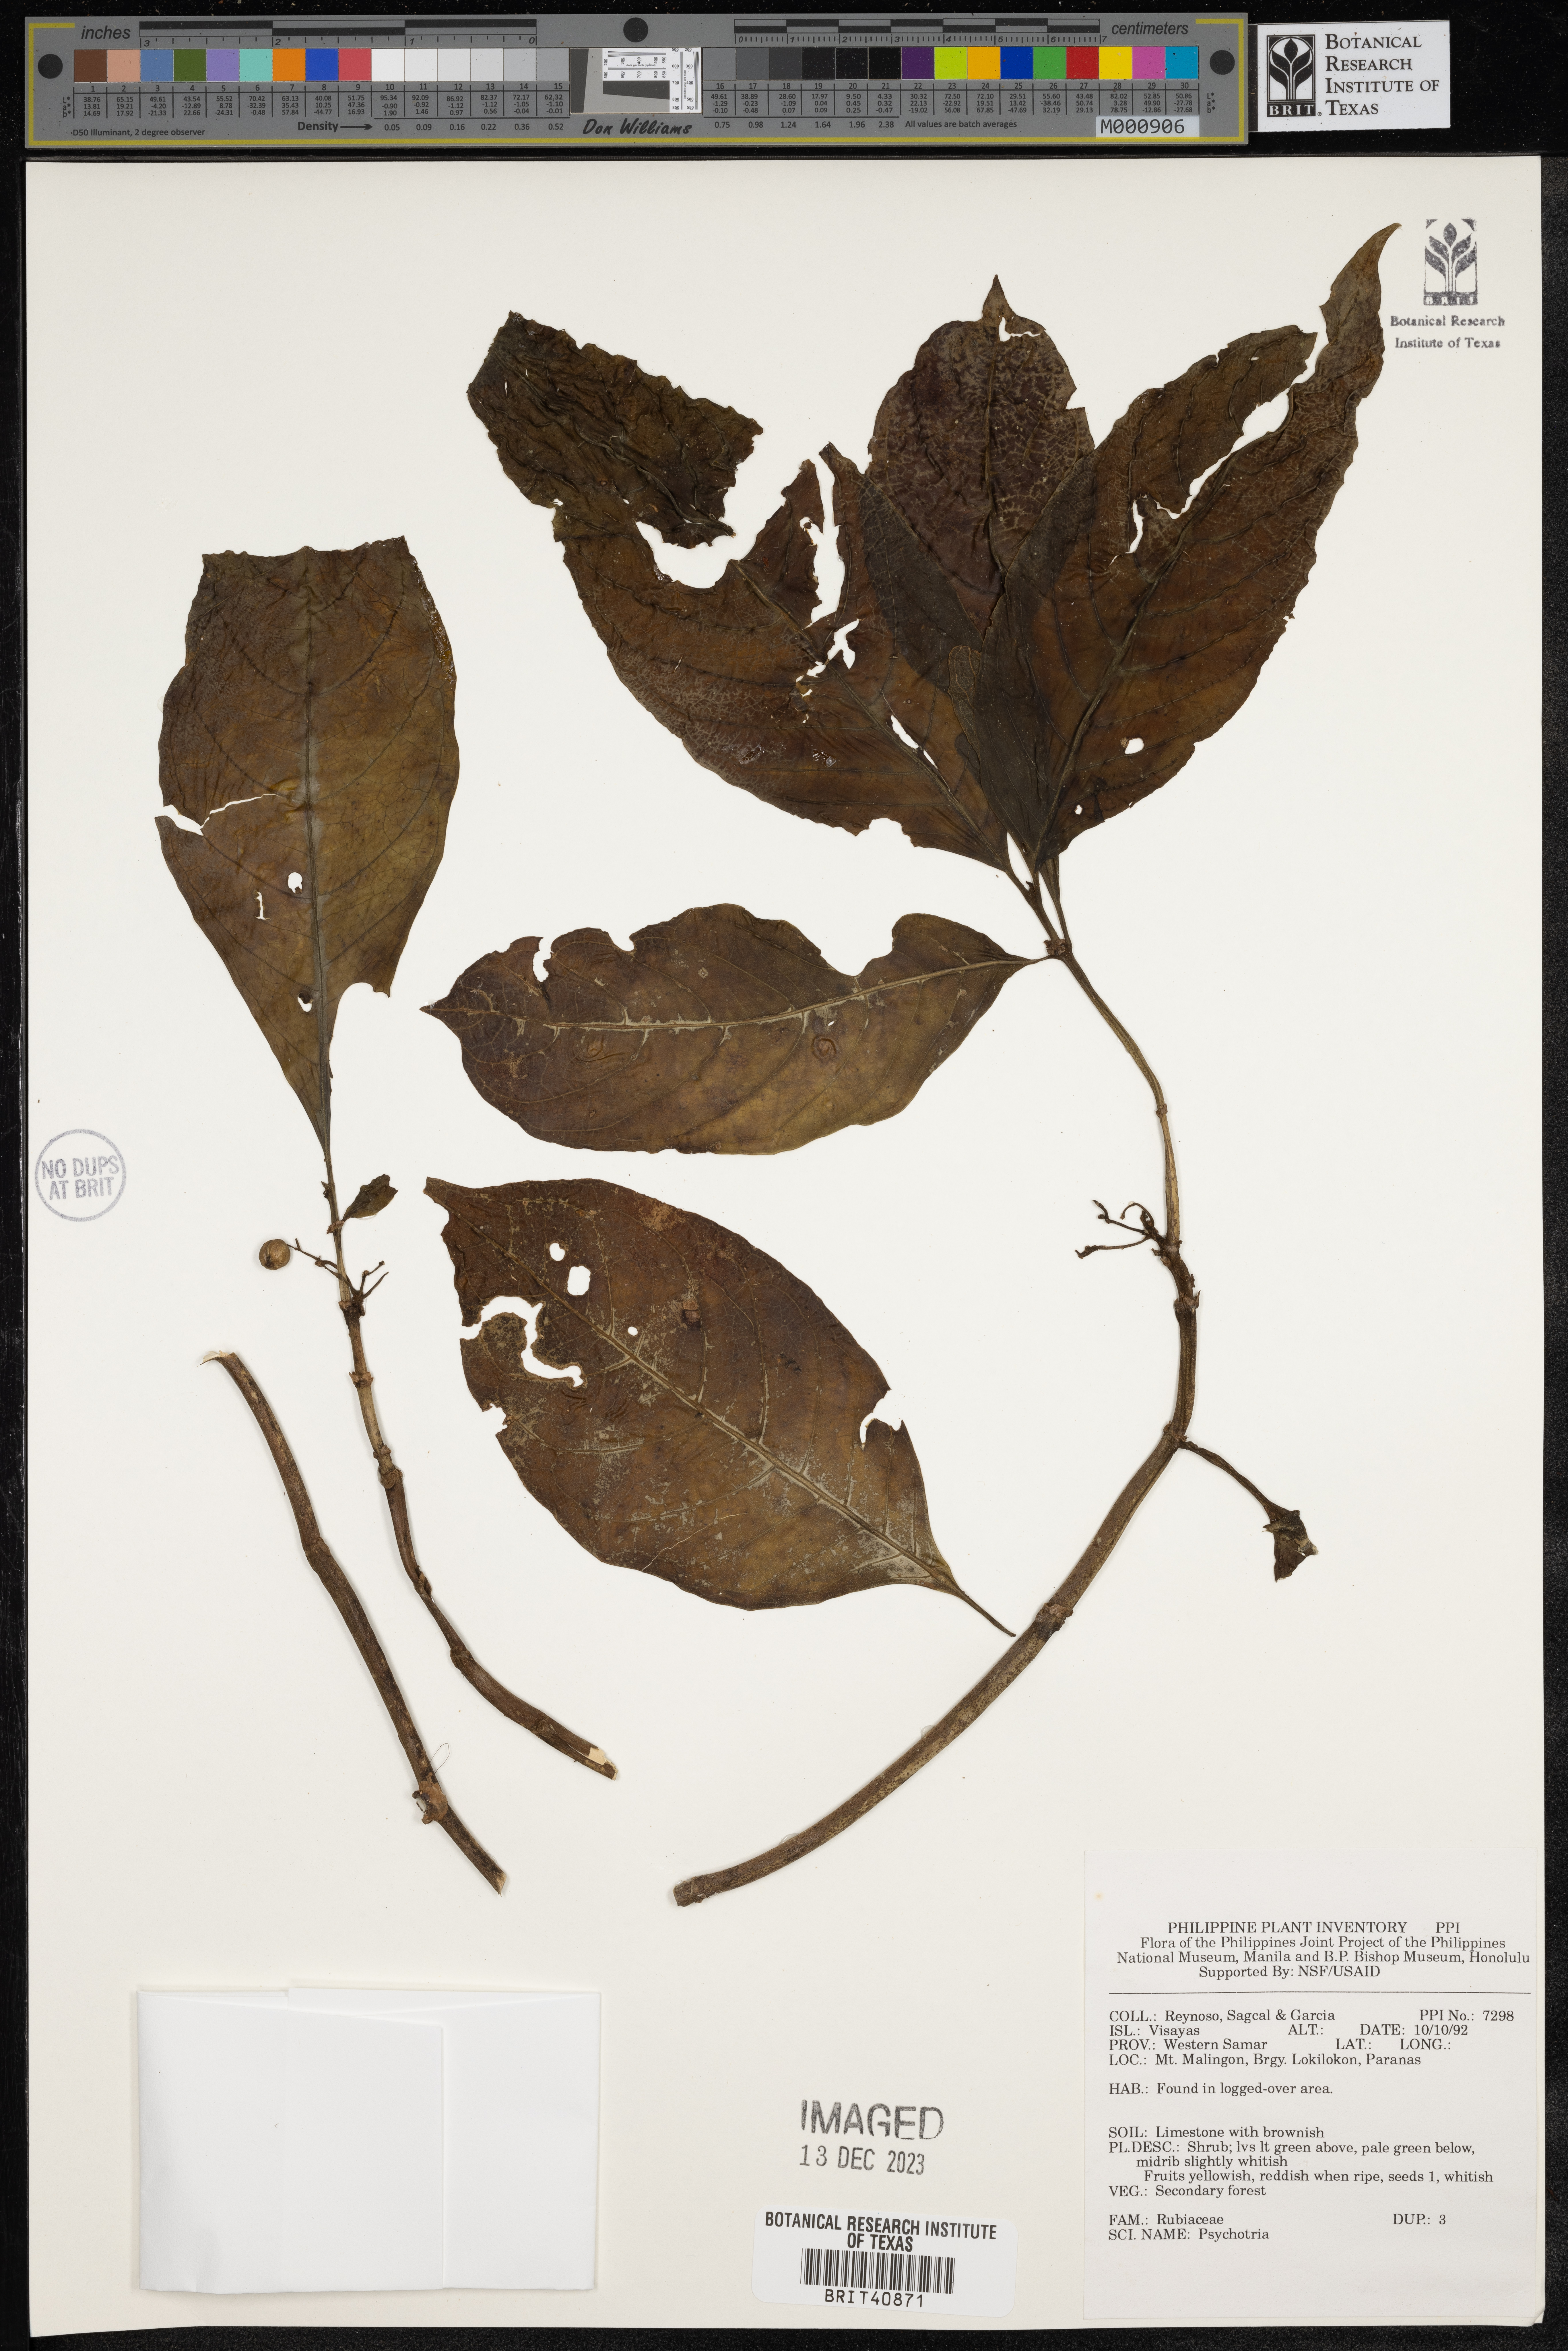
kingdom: Plantae
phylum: Tracheophyta
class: Magnoliopsida
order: Gentianales
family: Rubiaceae
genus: Psychotria
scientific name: Psychotria
